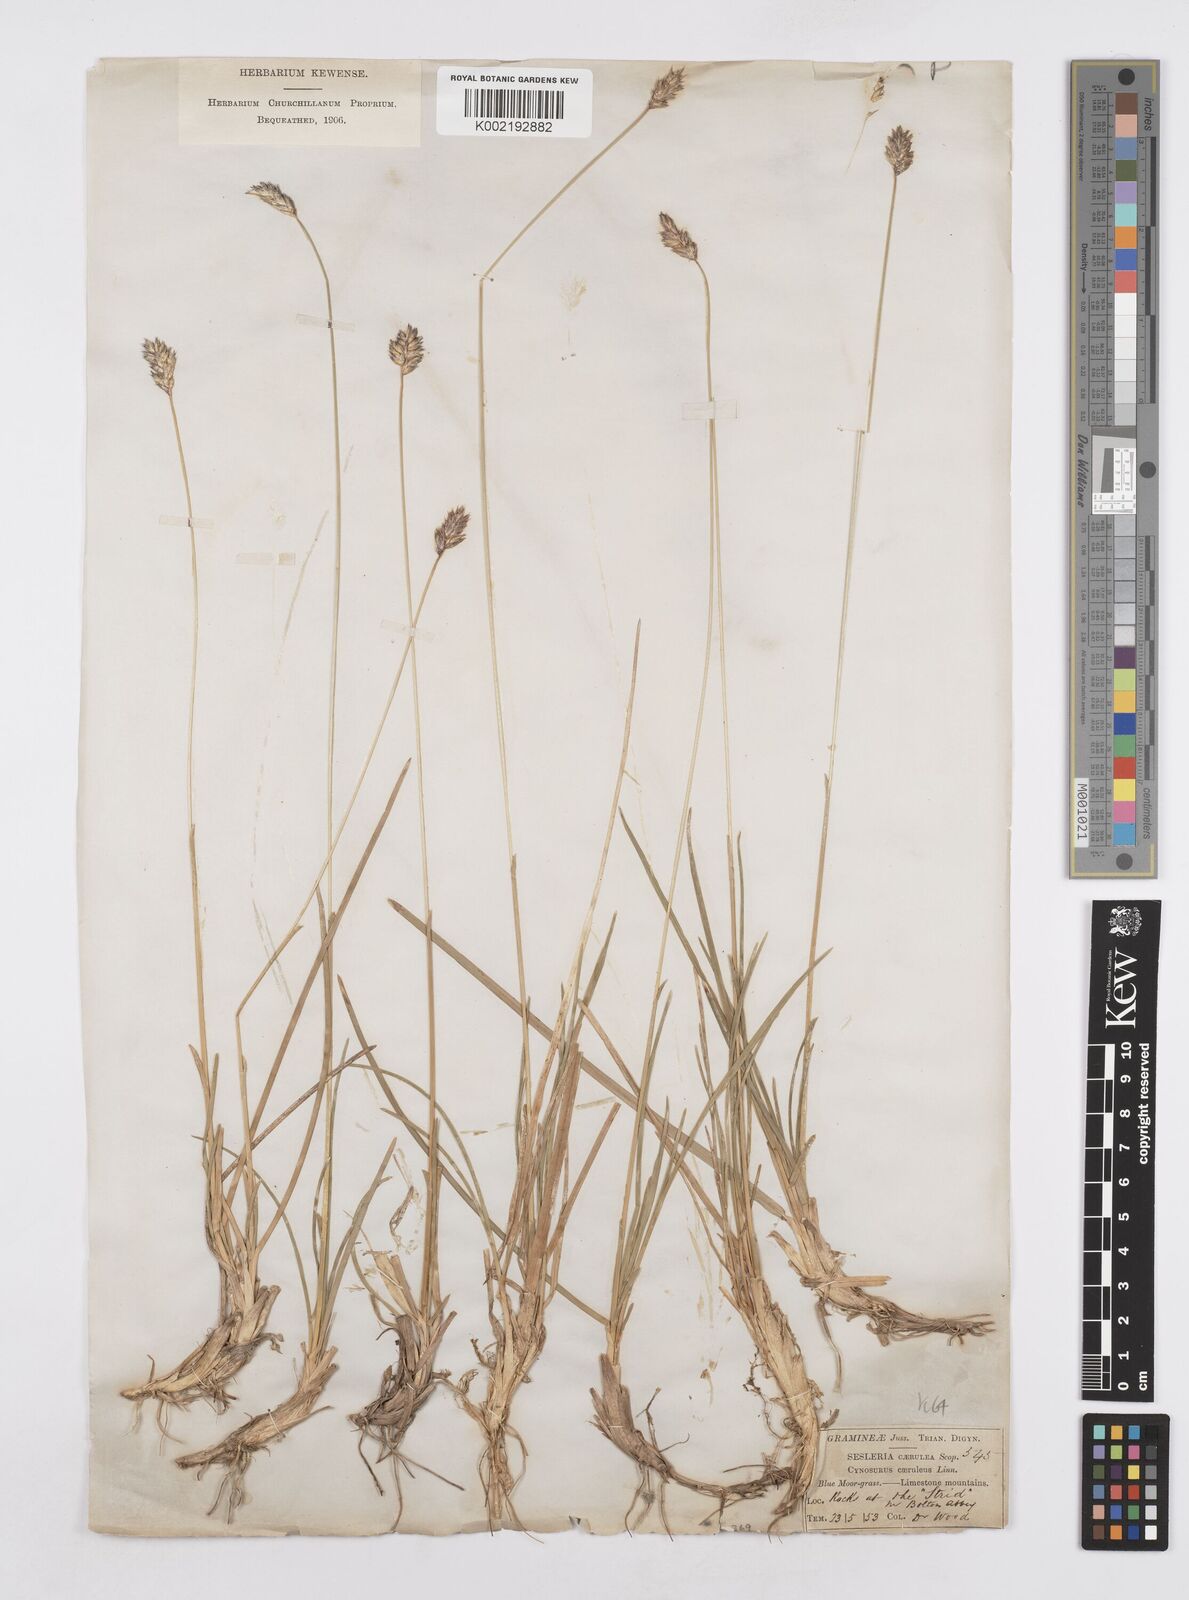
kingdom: Plantae
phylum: Tracheophyta
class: Liliopsida
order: Poales
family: Poaceae
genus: Sesleria
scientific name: Sesleria caerulea
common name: Blue moor-grass
